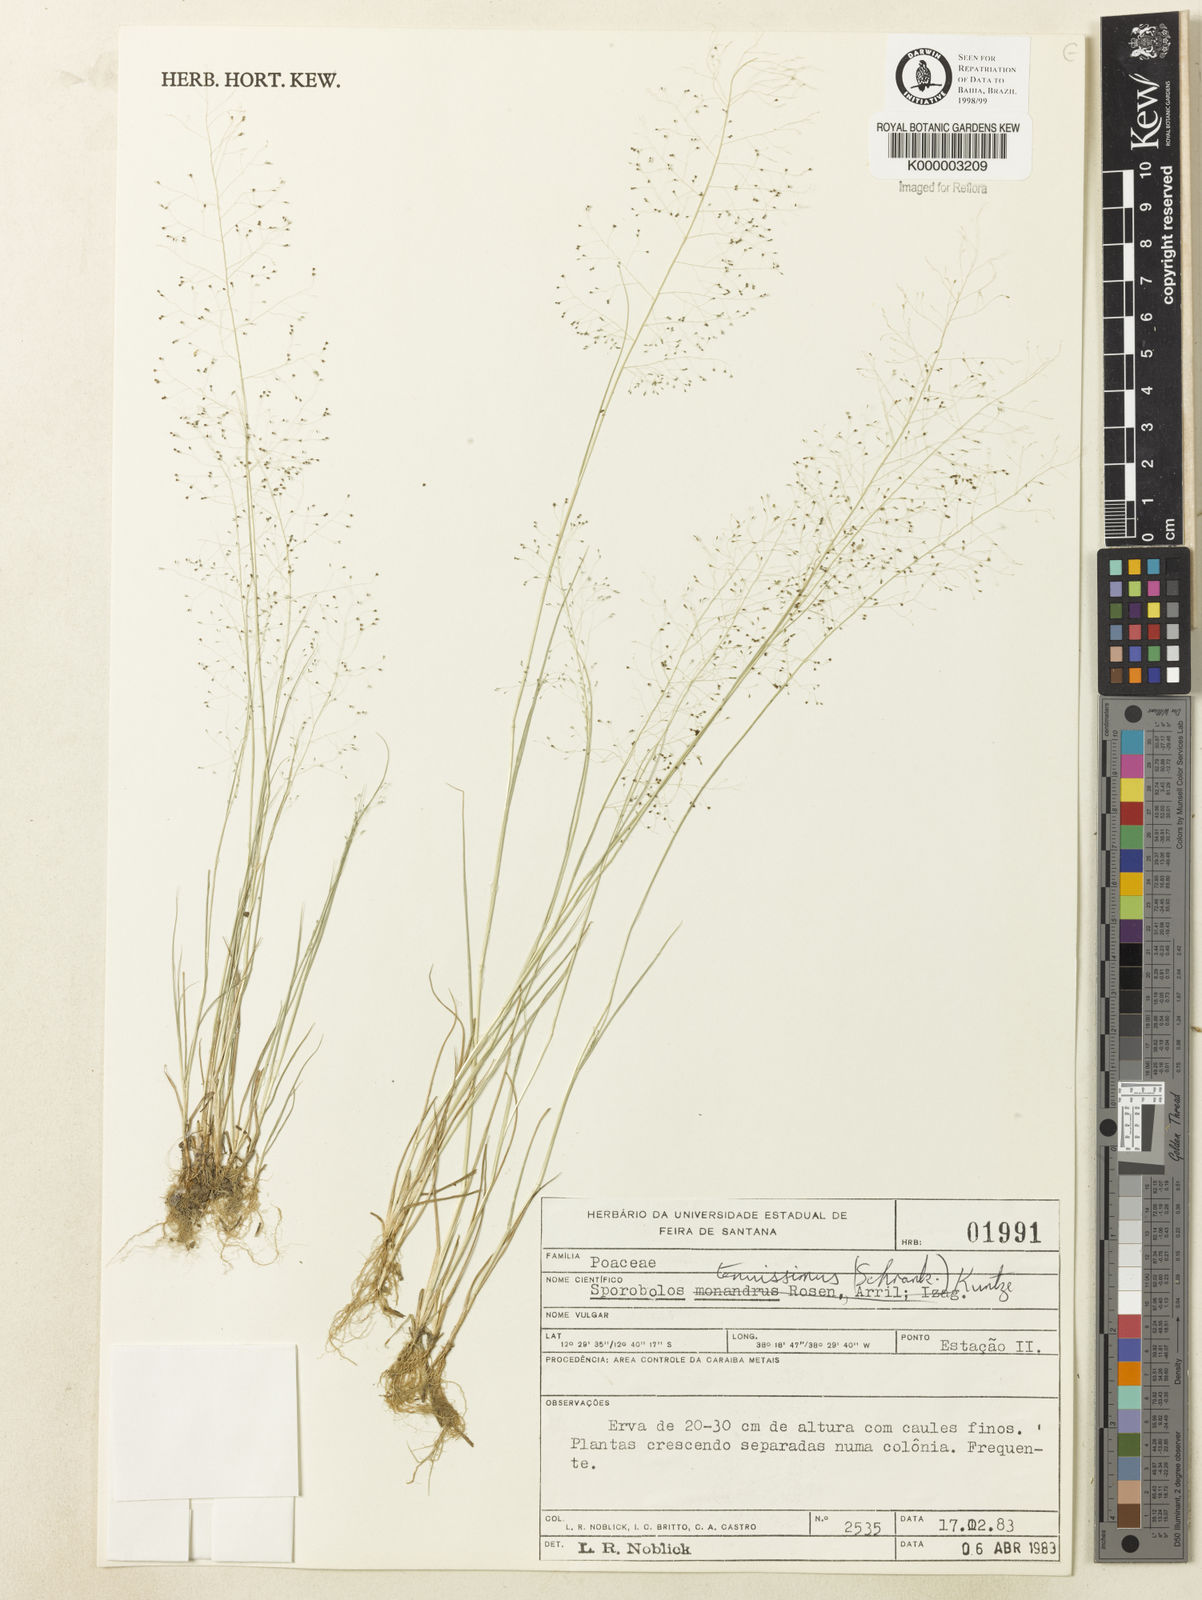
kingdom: Plantae
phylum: Tracheophyta
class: Liliopsida
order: Poales
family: Poaceae
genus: Sporobolus
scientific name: Sporobolus tenuissimus
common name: Tropical dropseed
